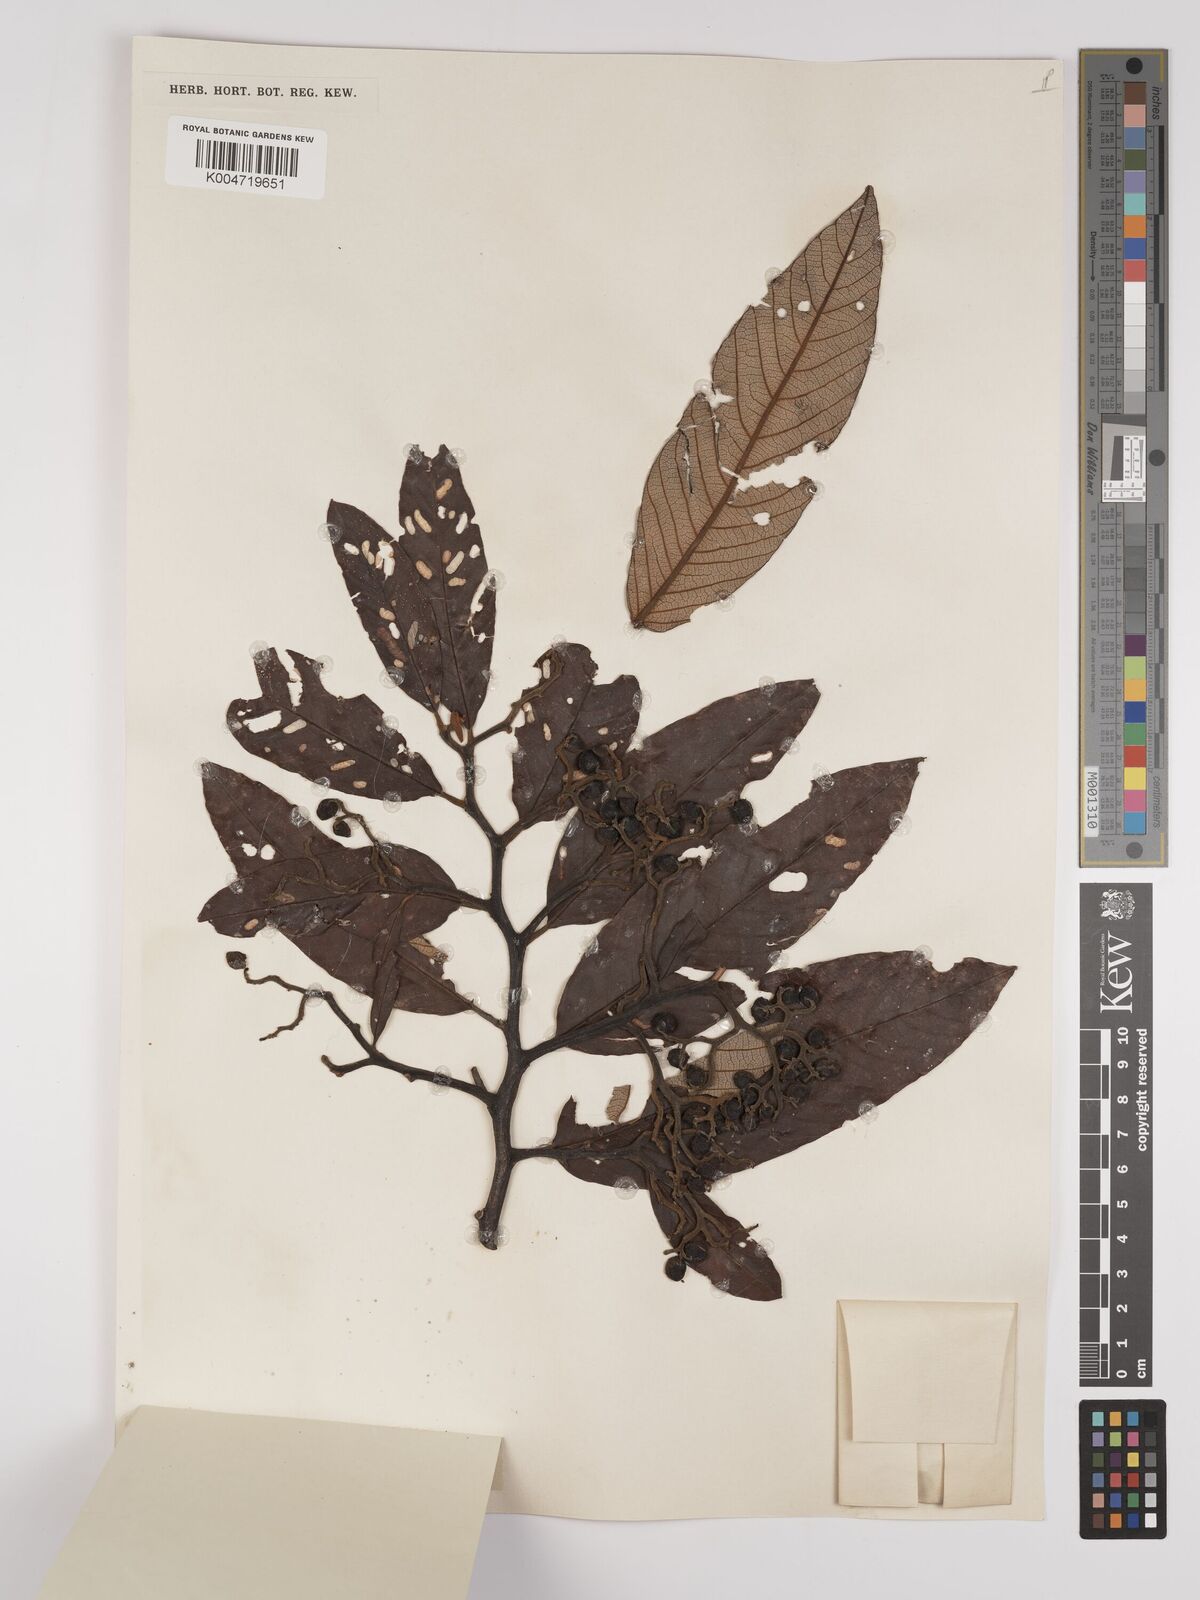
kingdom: Plantae
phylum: Tracheophyta
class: Magnoliopsida
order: Rosales
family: Rhamnaceae
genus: Alphitonia
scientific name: Alphitonia
